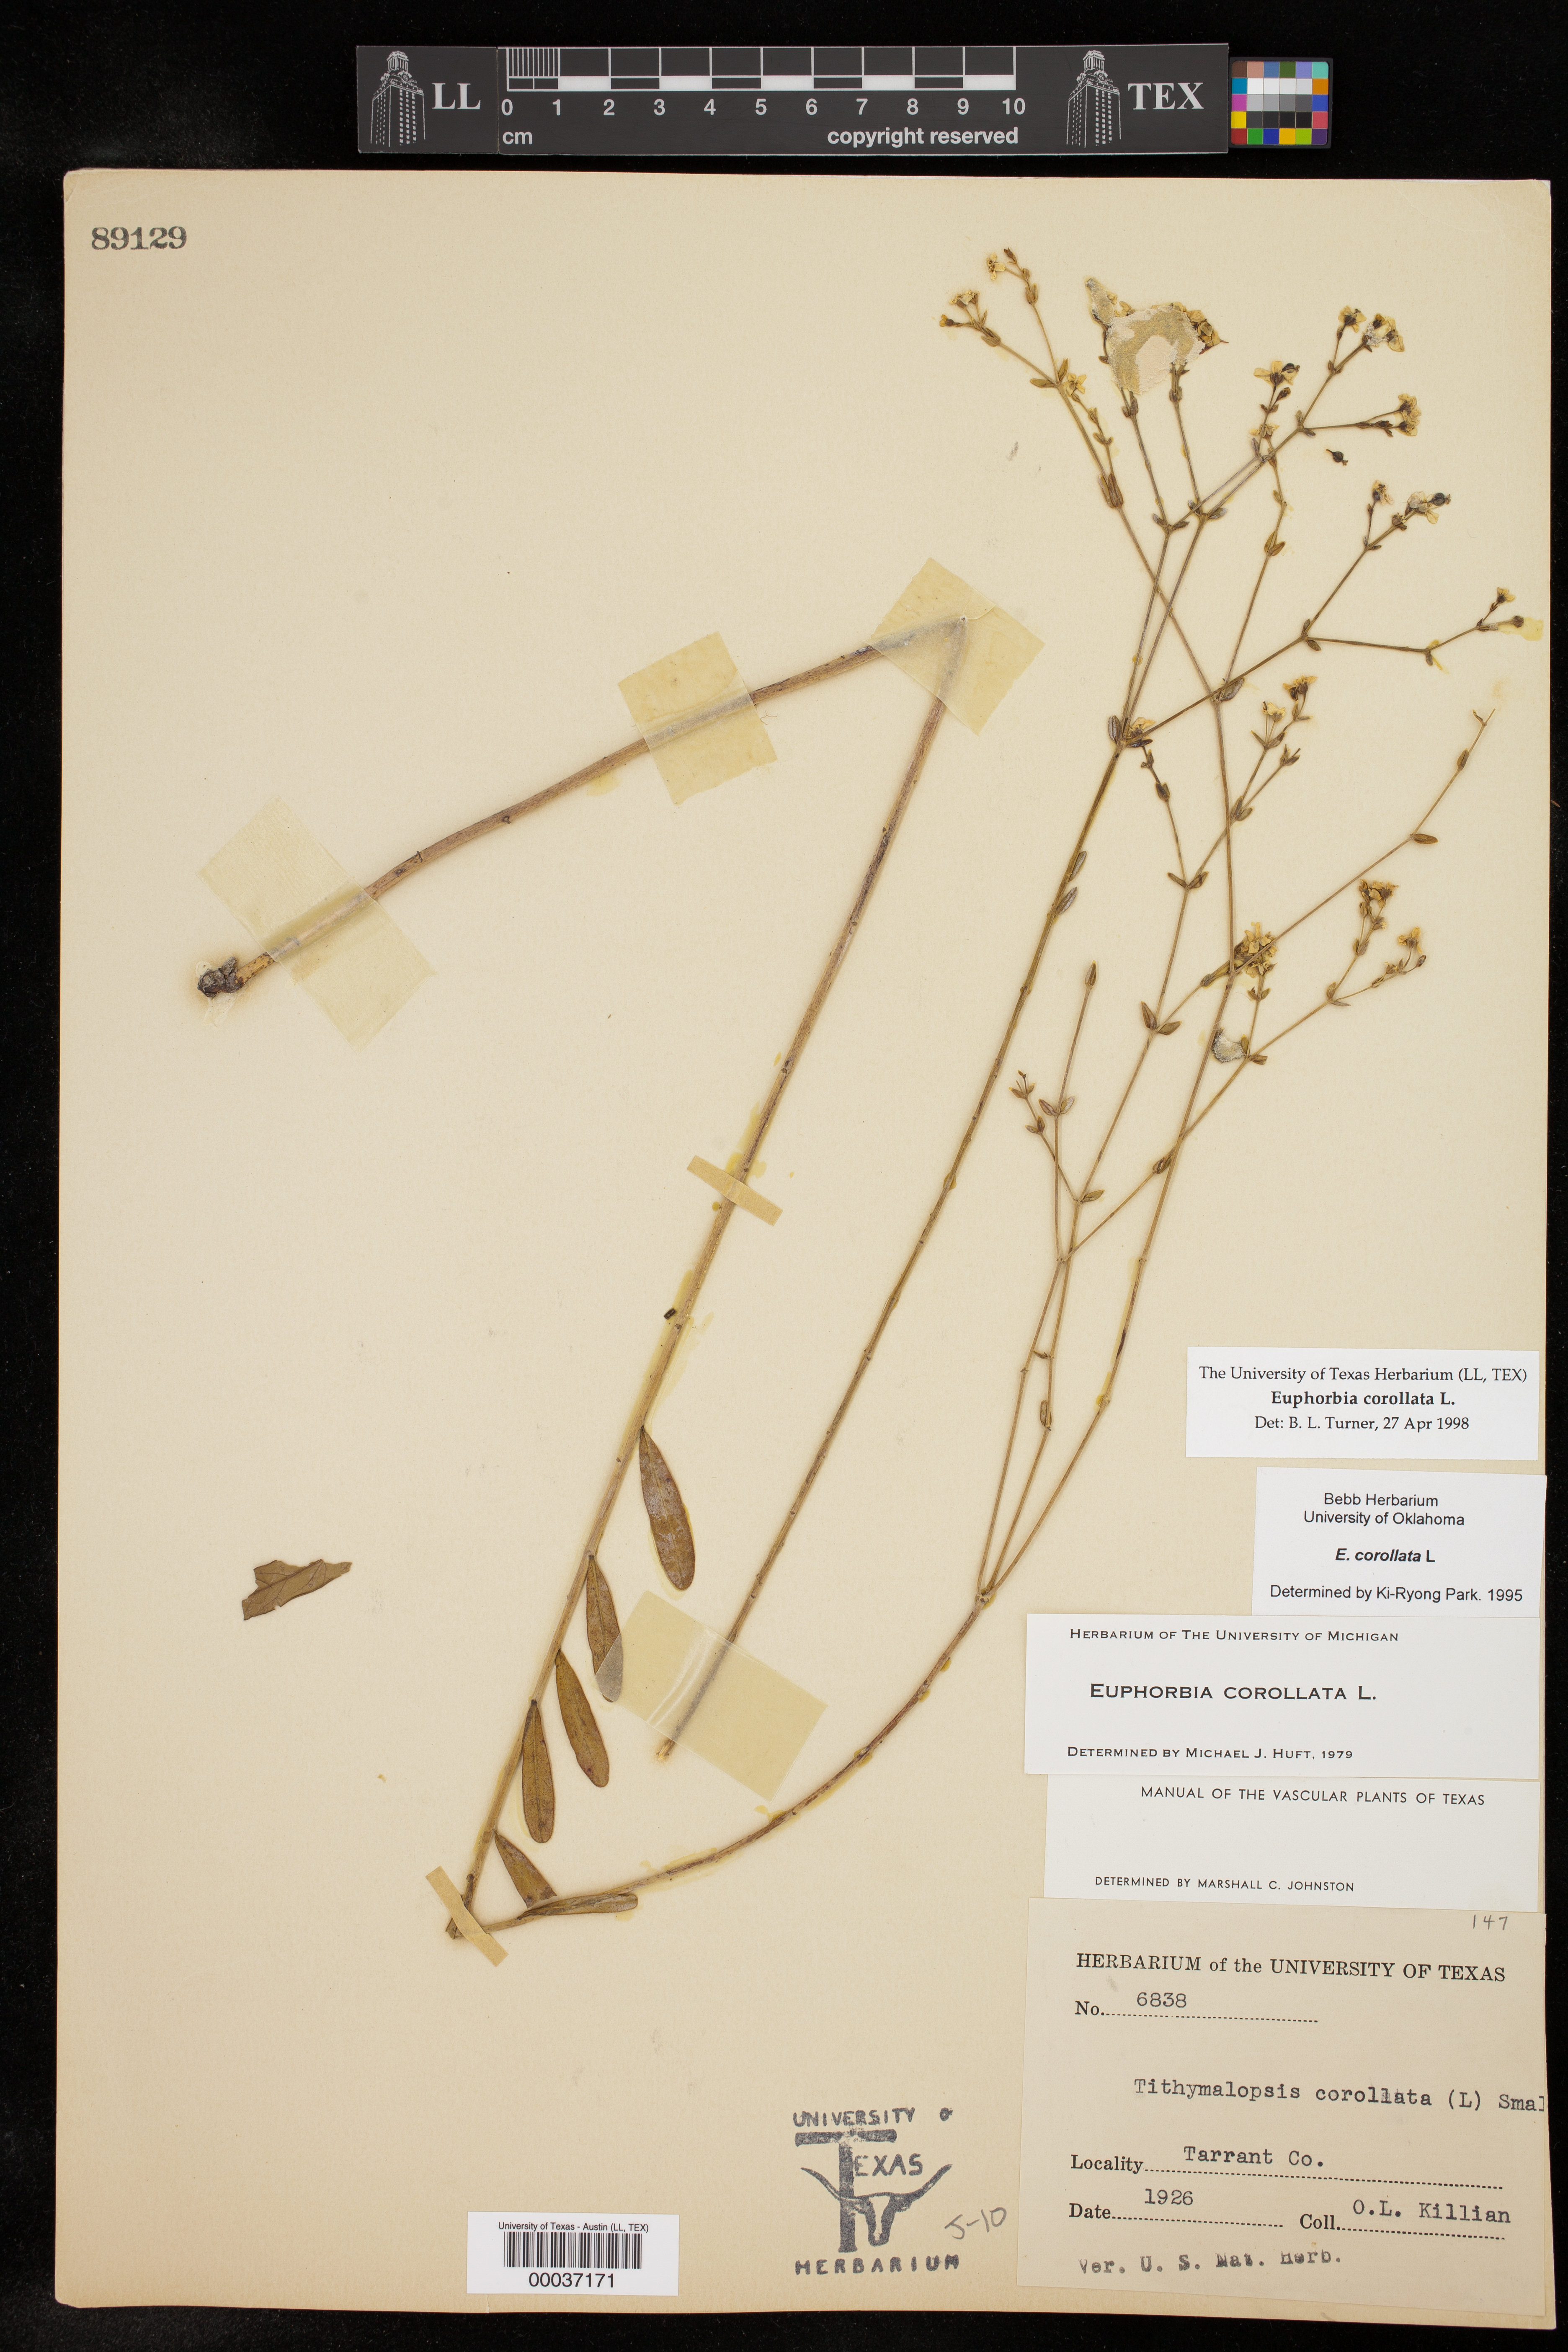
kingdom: Plantae
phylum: Tracheophyta
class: Magnoliopsida
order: Malpighiales
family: Euphorbiaceae
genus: Euphorbia
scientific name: Euphorbia corollata
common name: Flowering spurge
